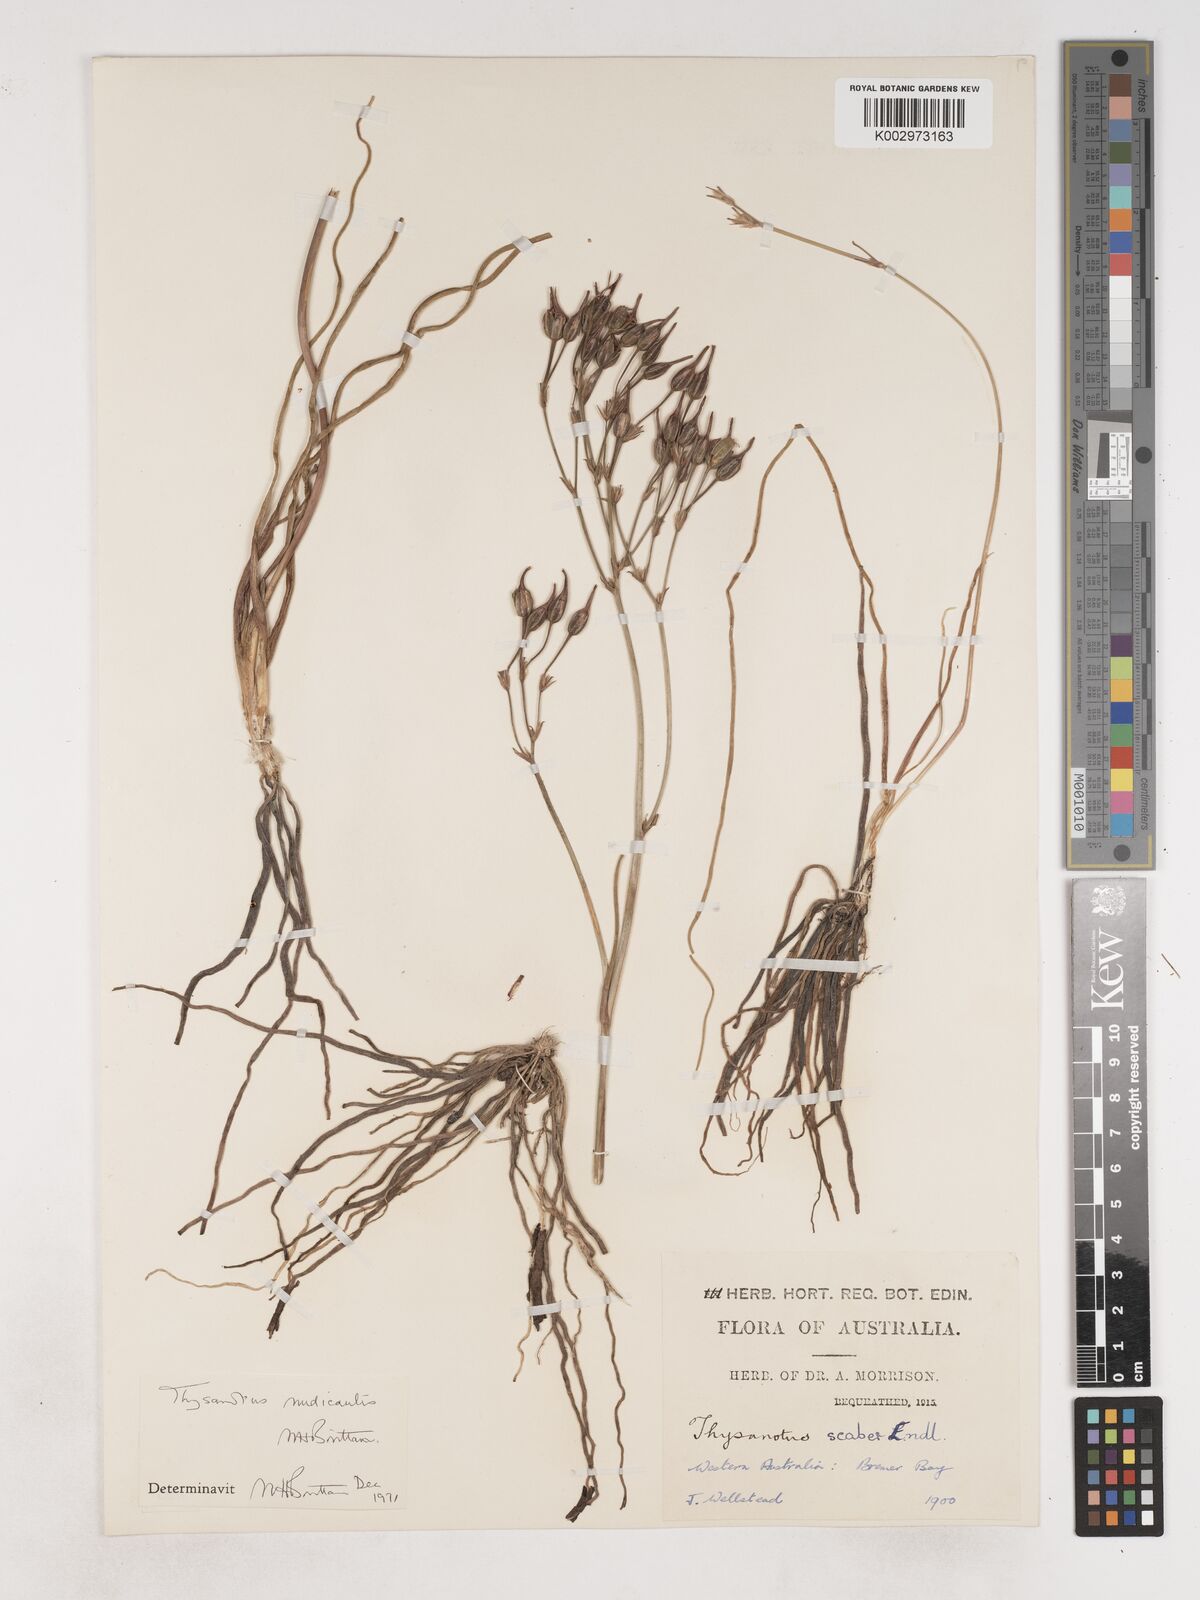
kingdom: Plantae
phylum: Tracheophyta
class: Liliopsida
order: Asparagales
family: Asparagaceae
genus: Thysanotus
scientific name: Thysanotus nudicaulis
